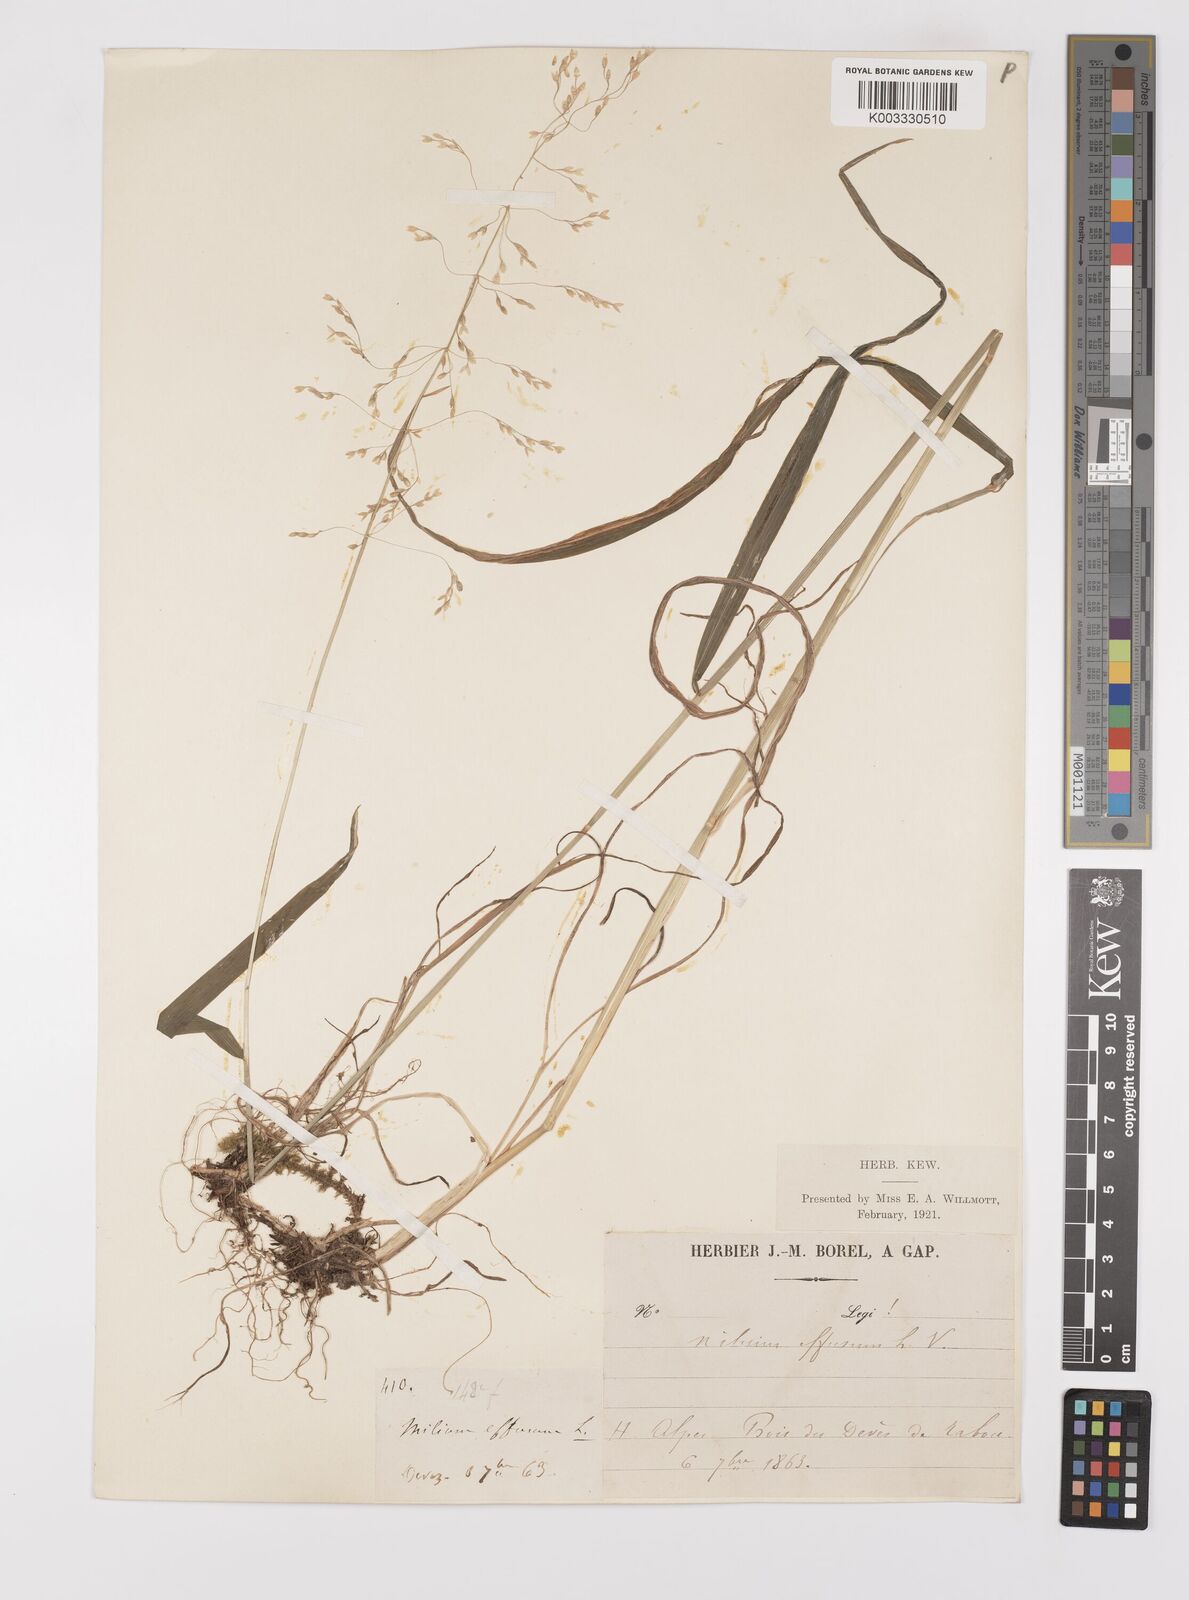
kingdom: Plantae
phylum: Tracheophyta
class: Liliopsida
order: Poales
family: Poaceae
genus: Milium
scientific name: Milium
